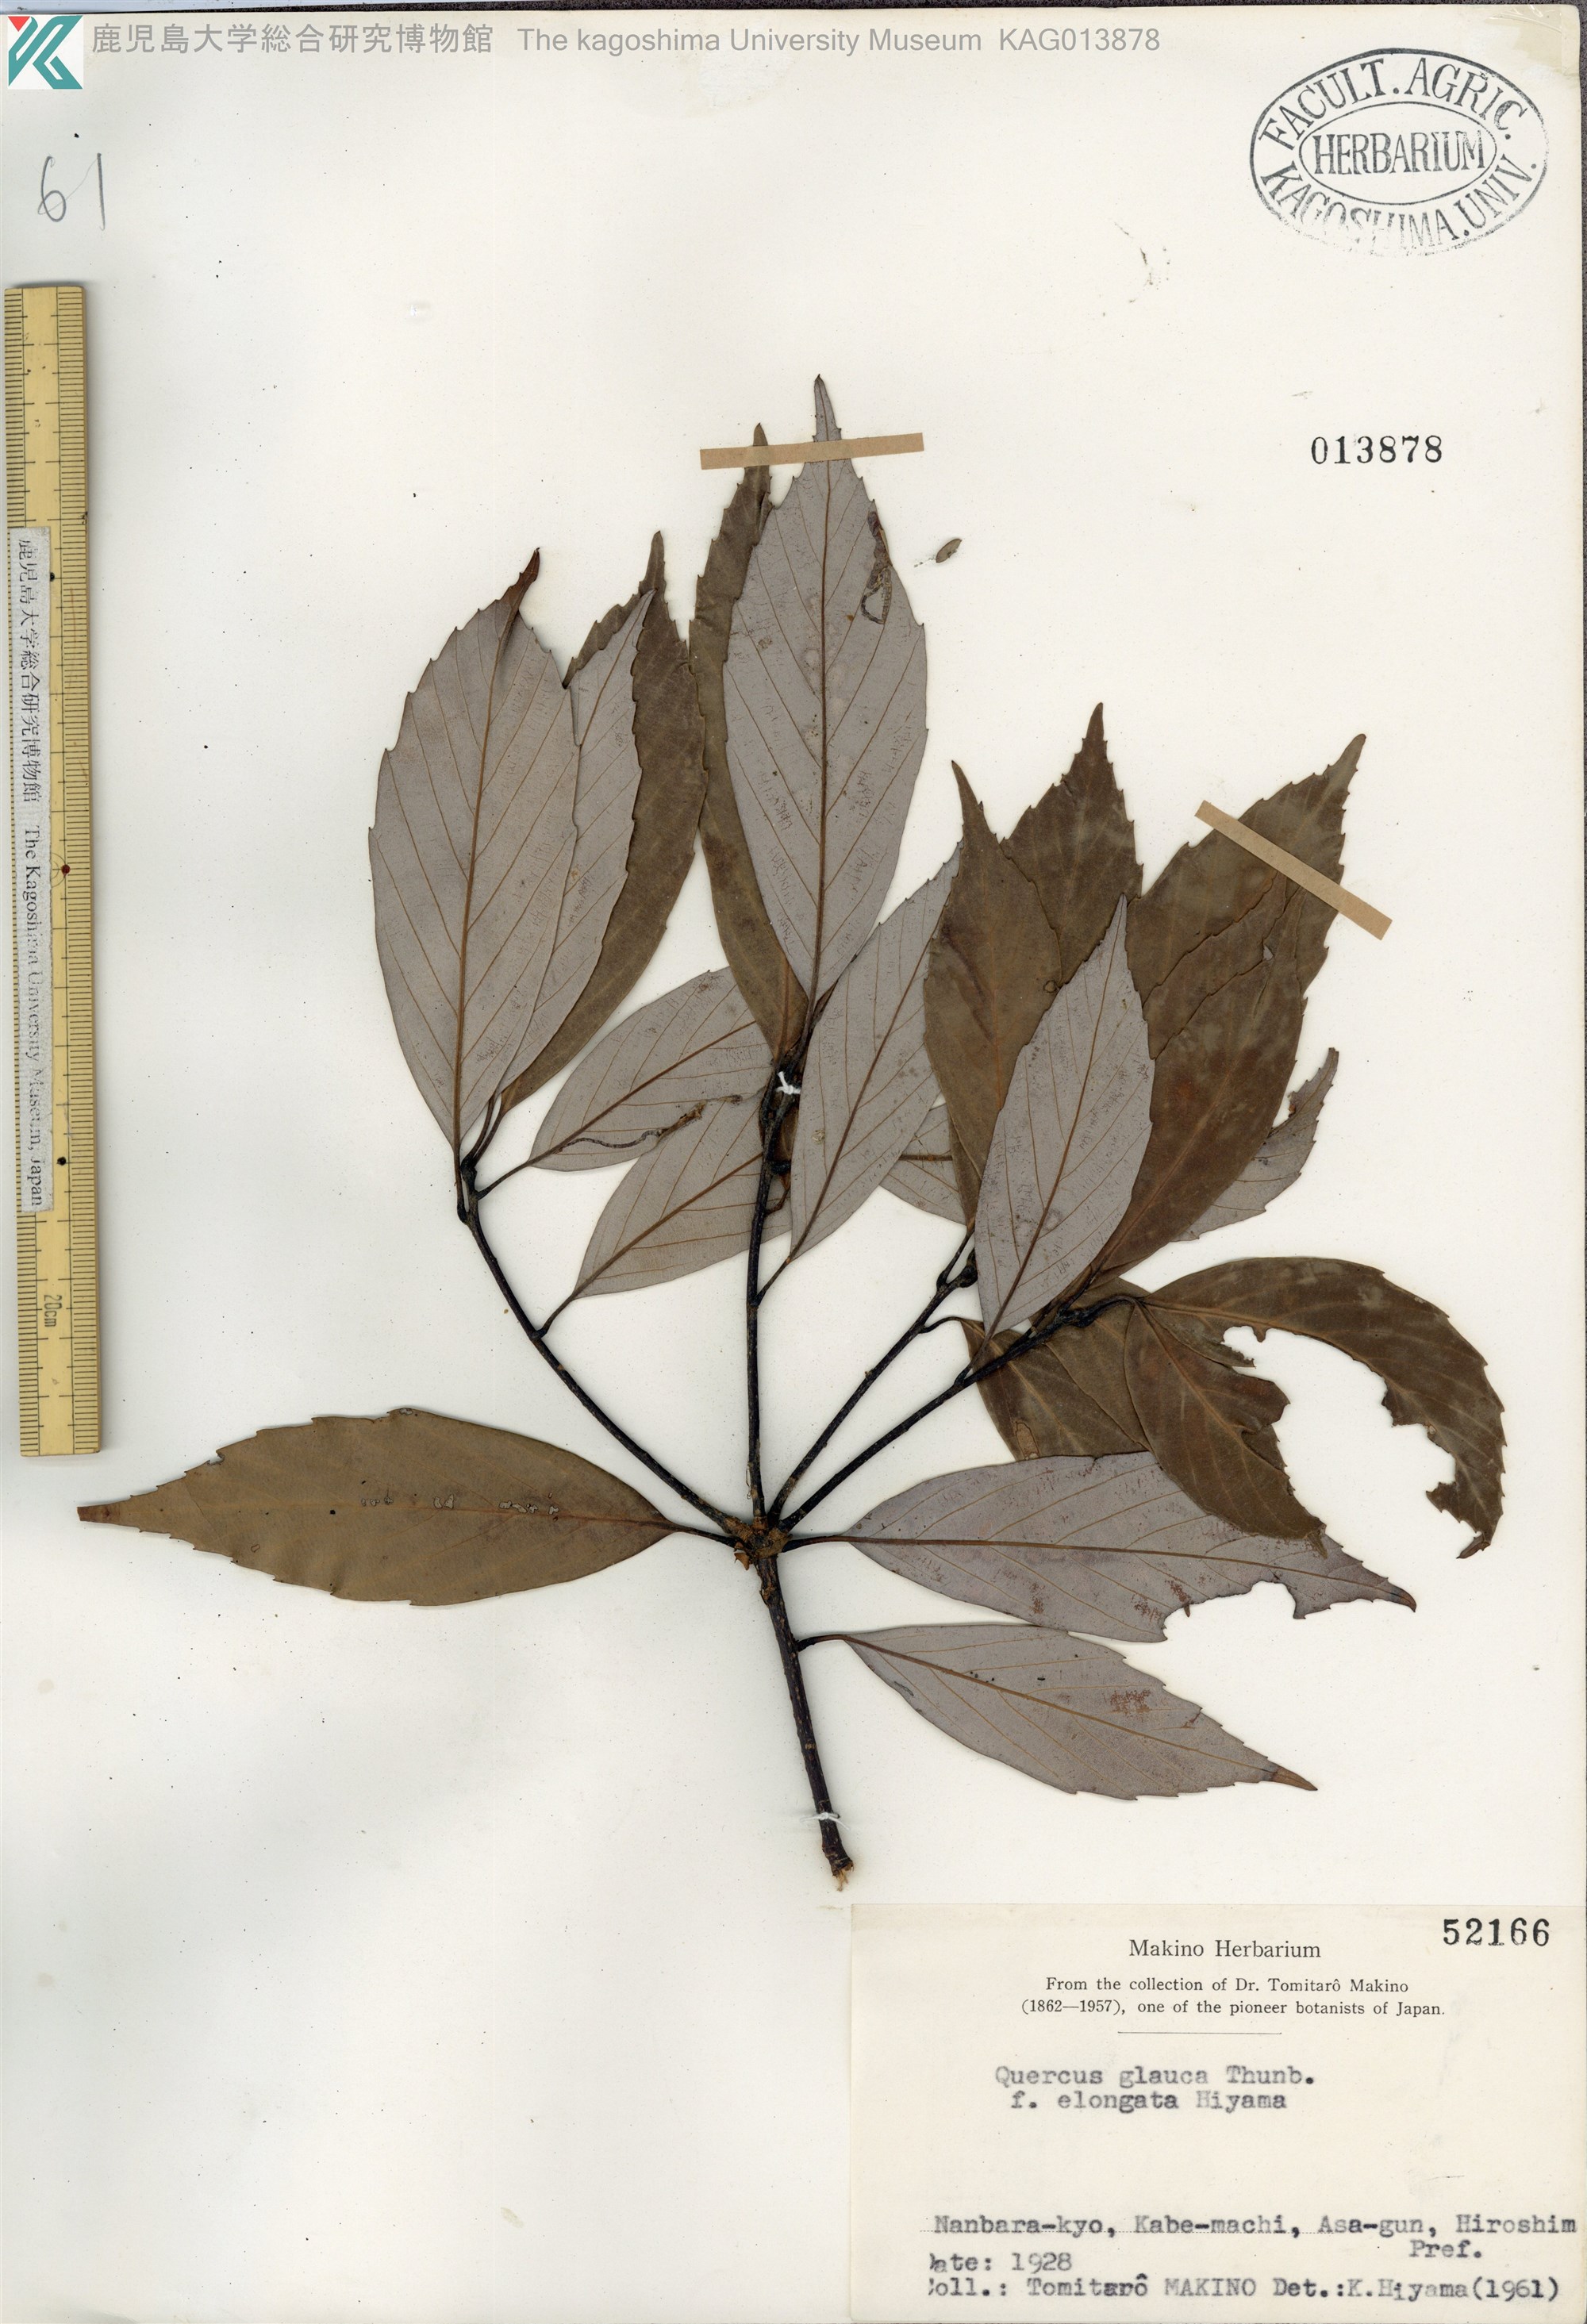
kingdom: Plantae
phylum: Tracheophyta
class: Magnoliopsida
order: Fagales
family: Fagaceae
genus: Quercus
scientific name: Quercus glauca
